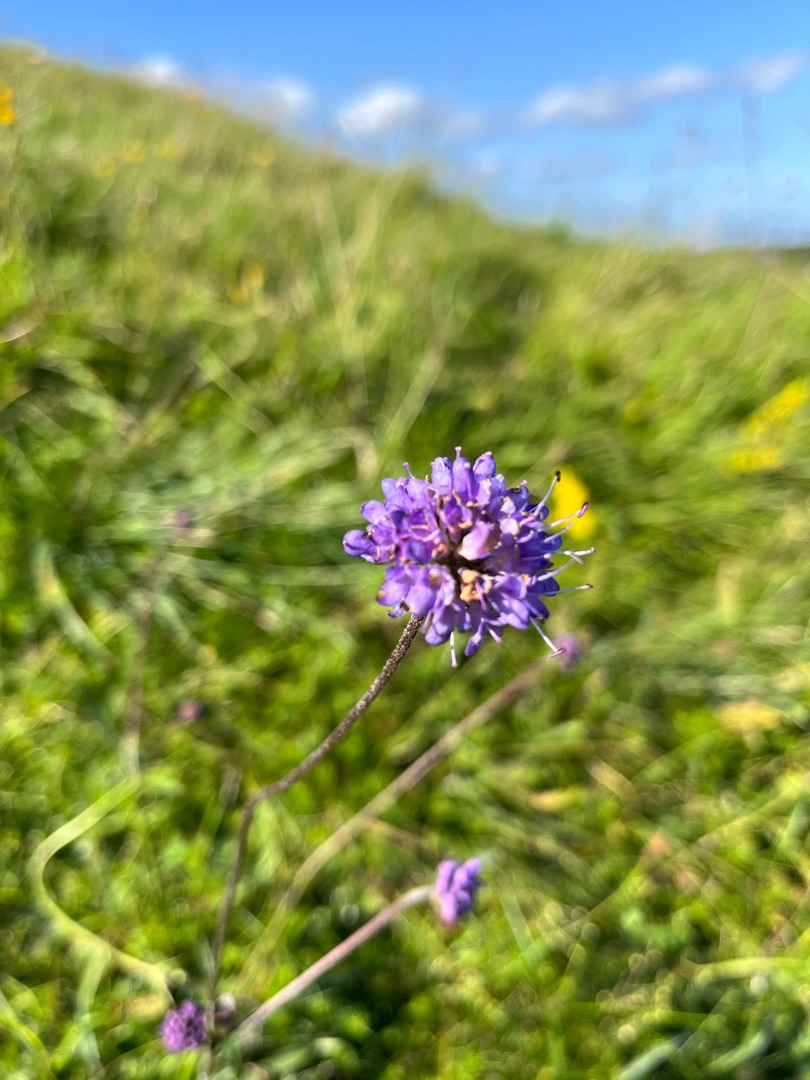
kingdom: Plantae
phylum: Tracheophyta
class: Magnoliopsida
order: Dipsacales
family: Caprifoliaceae
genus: Succisa
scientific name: Succisa pratensis
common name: Djævelsbid
